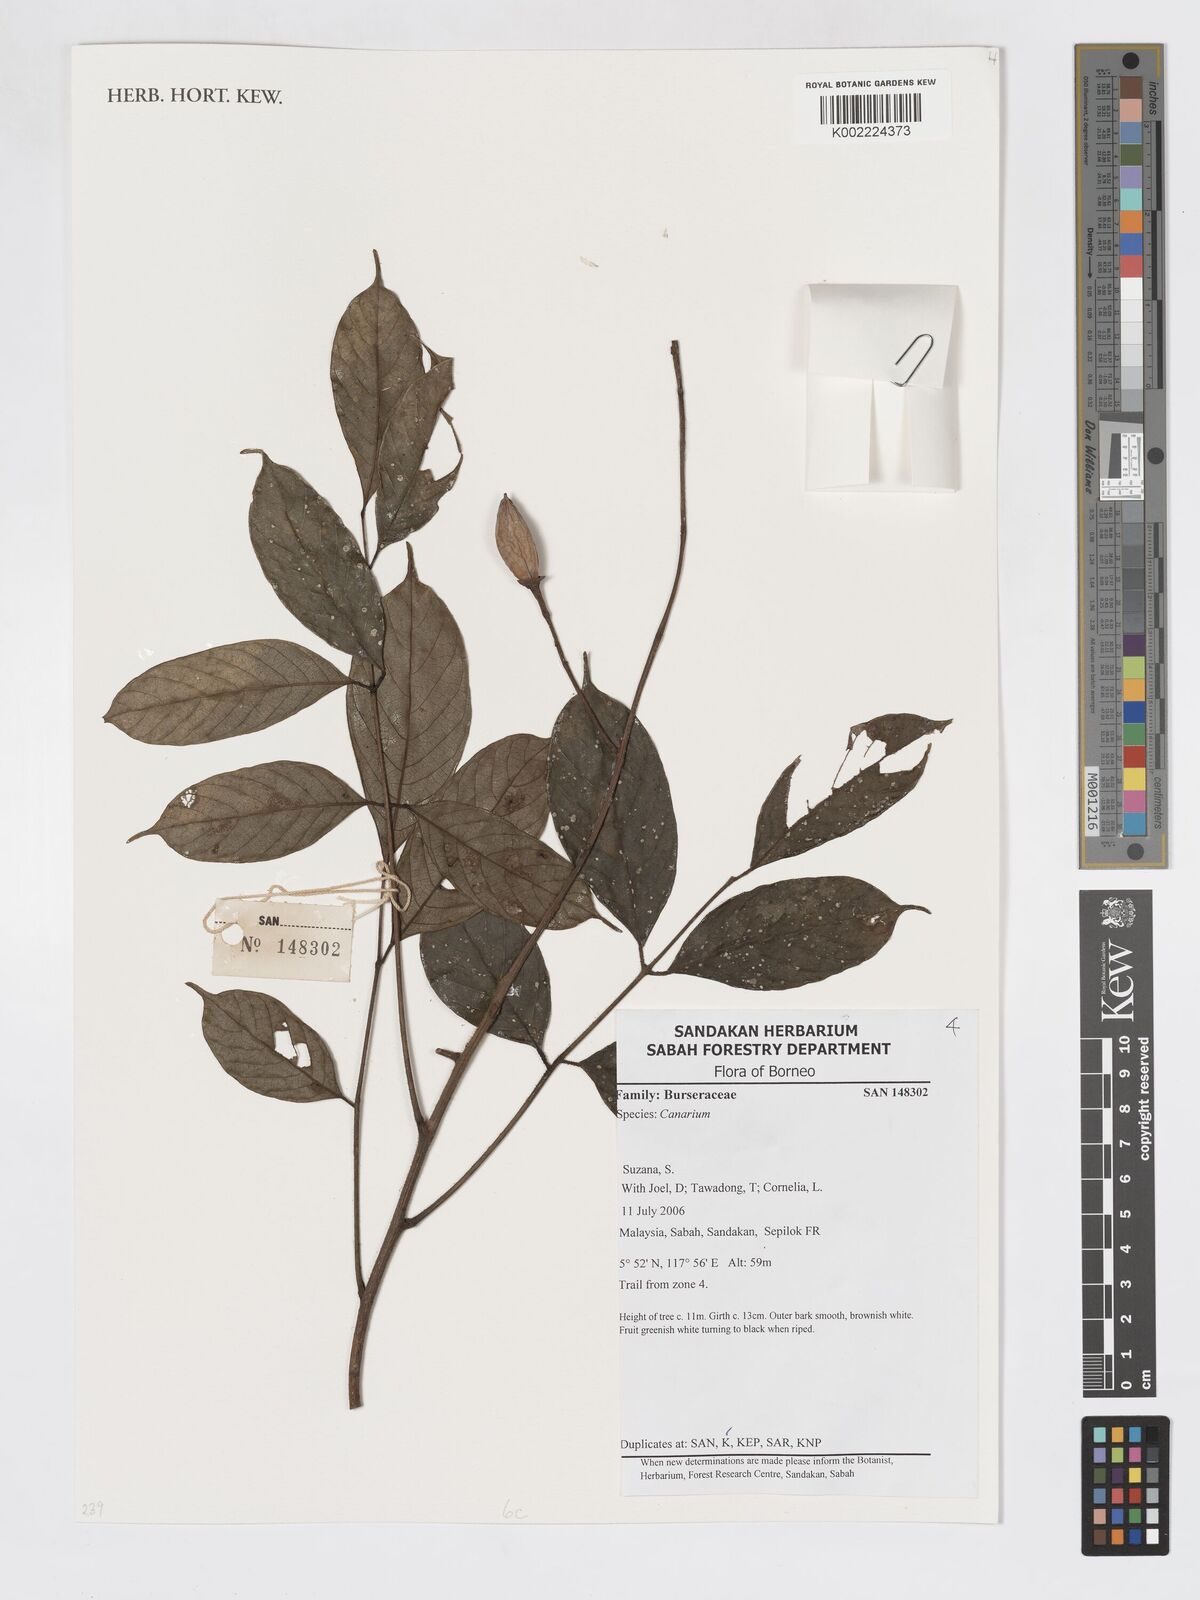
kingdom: Plantae
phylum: Tracheophyta
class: Magnoliopsida
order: Sapindales
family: Burseraceae
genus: Canarium
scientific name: Canarium
